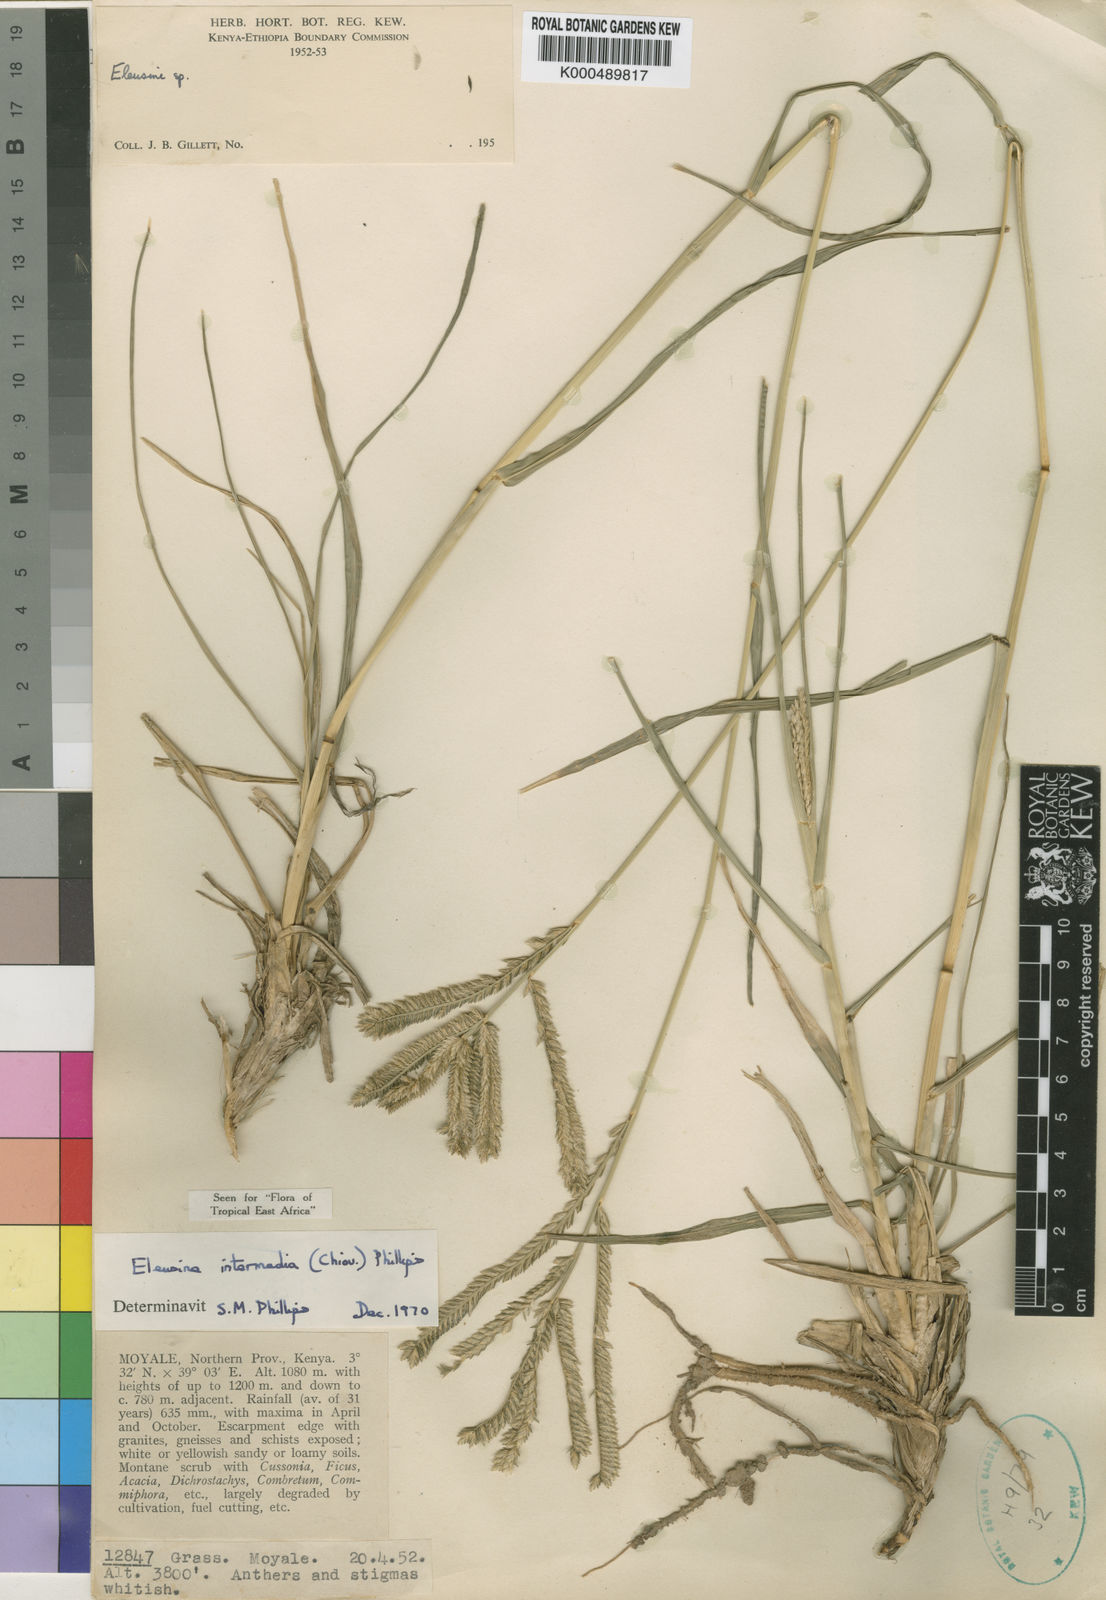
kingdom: Plantae
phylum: Tracheophyta
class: Liliopsida
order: Poales
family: Poaceae
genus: Eleusine
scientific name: Eleusine intermedia
